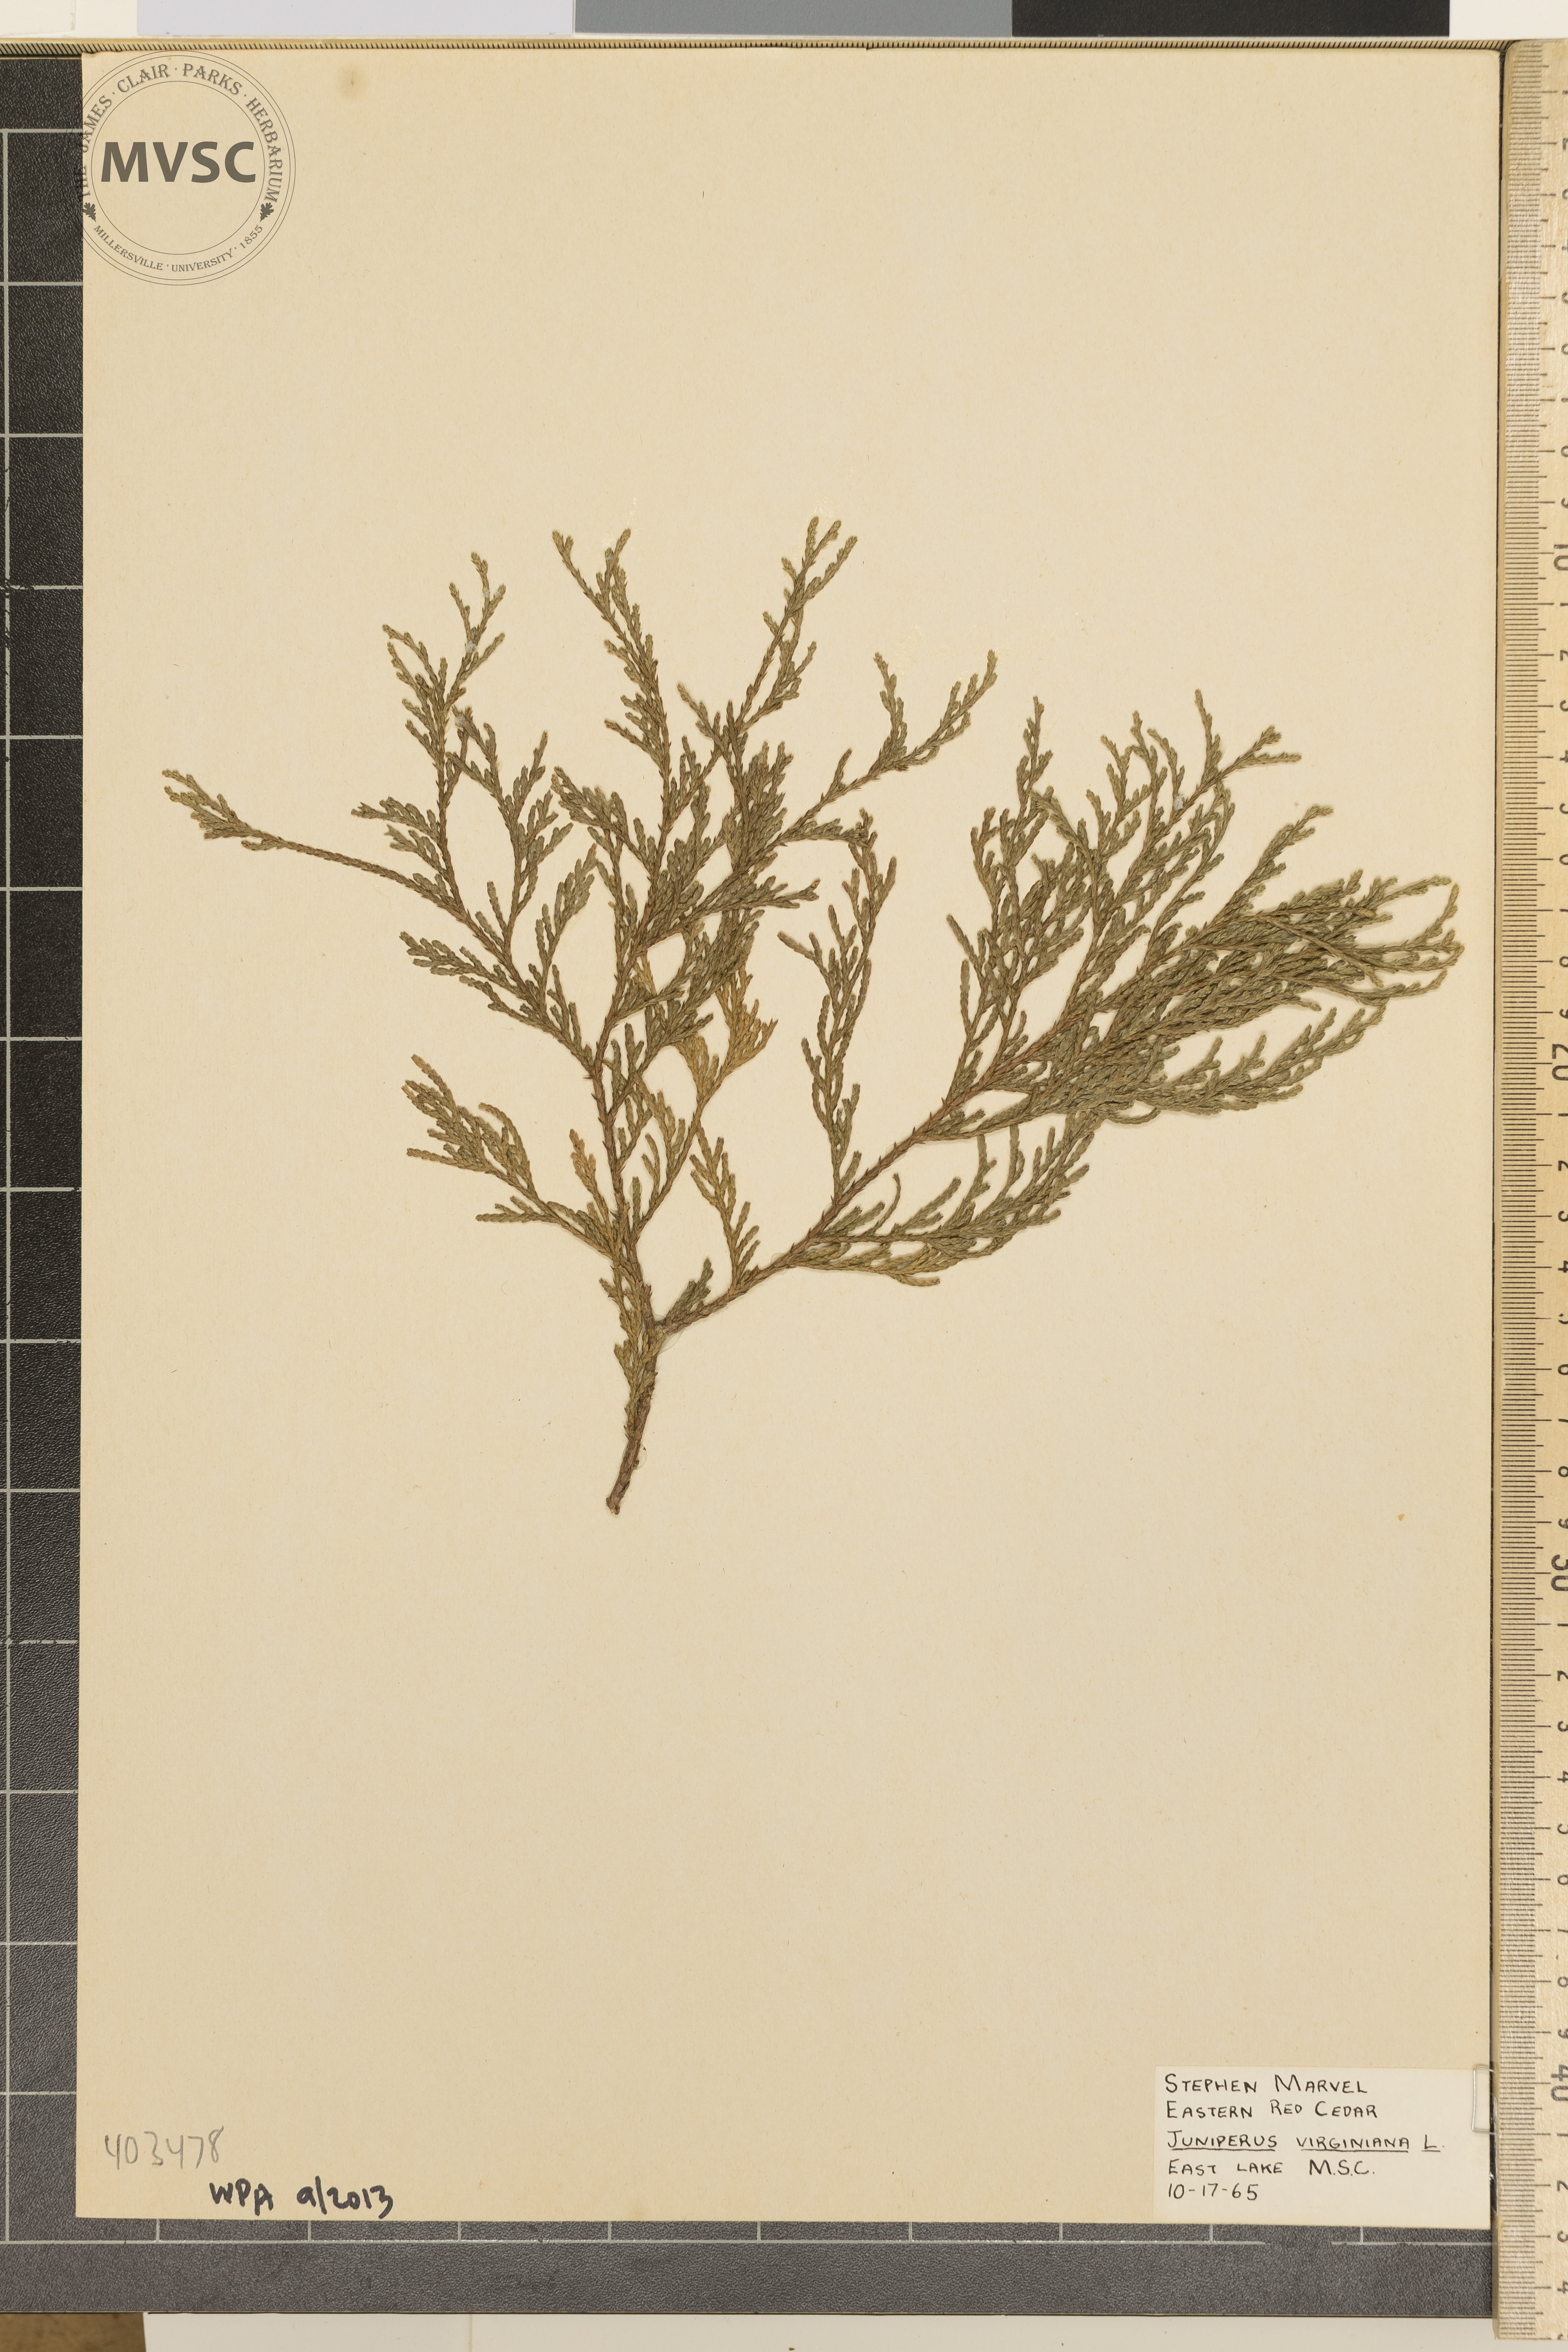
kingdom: Plantae
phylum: Tracheophyta
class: Pinopsida
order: Pinales
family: Cupressaceae
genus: Juniperus
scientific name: Juniperus virginiana
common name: Eastern redcedar
